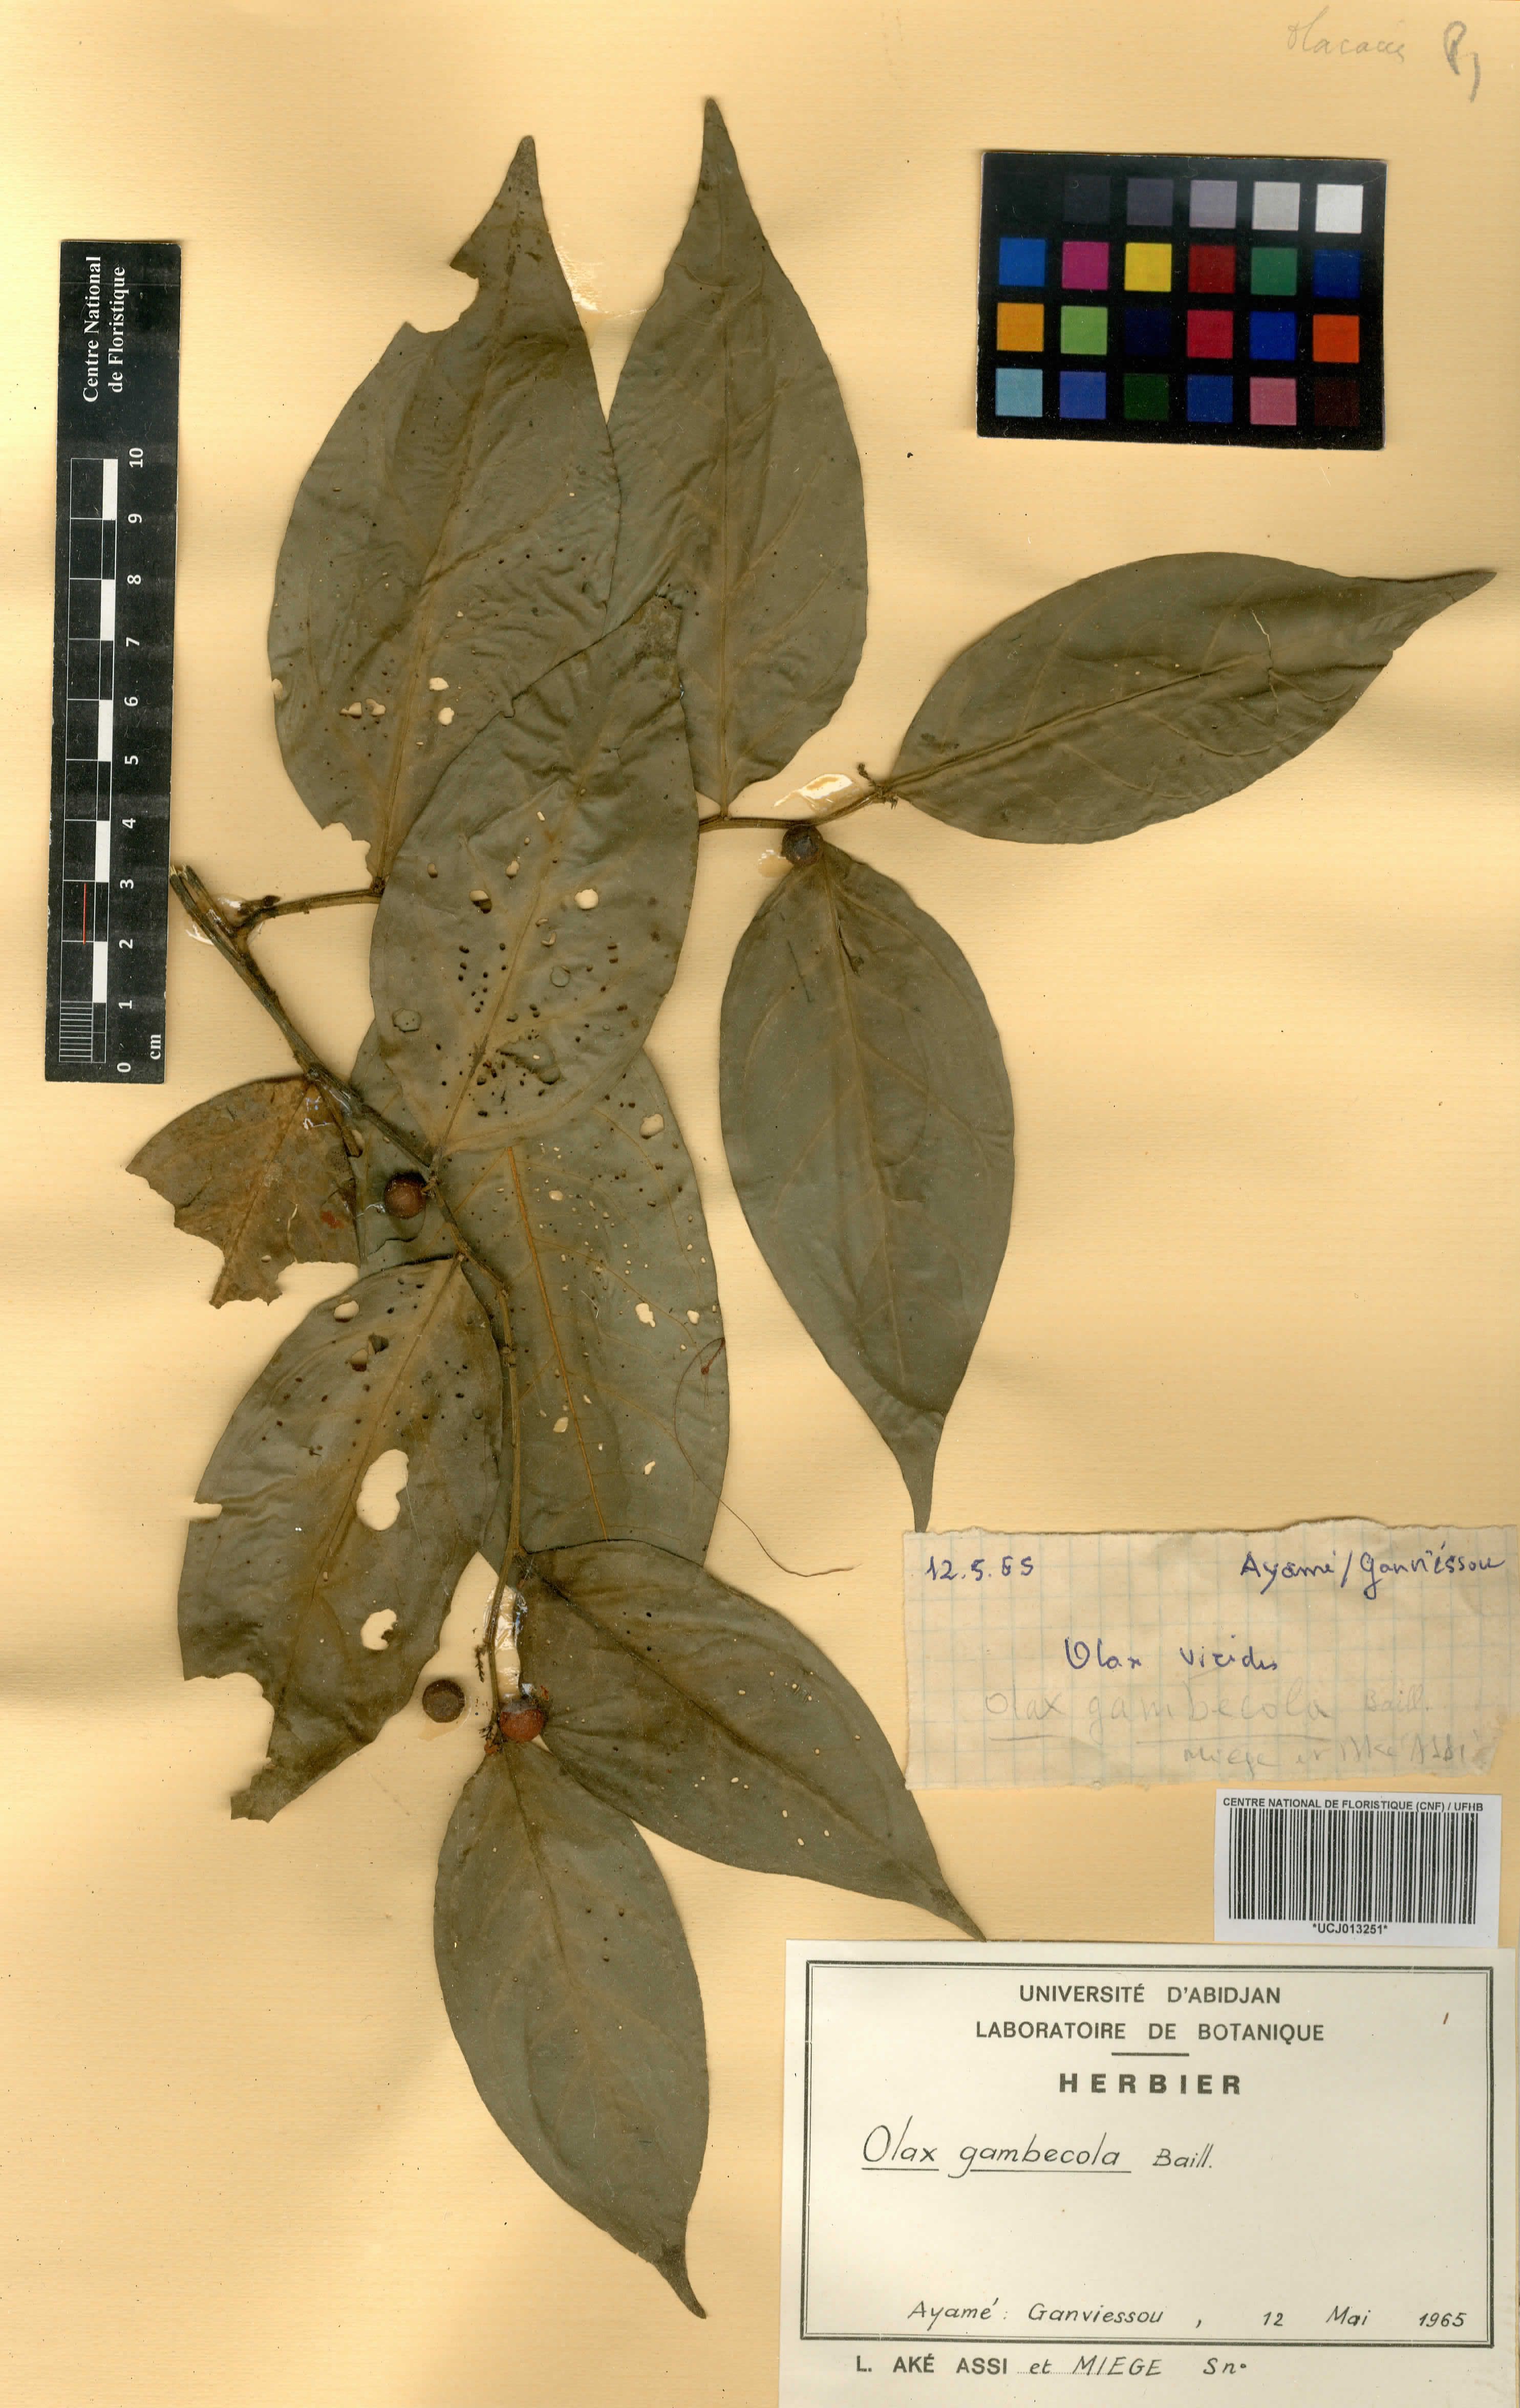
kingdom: Plantae
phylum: Tracheophyta
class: Magnoliopsida
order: Santalales
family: Olacaceae
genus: Olax
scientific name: Olax gambecola
